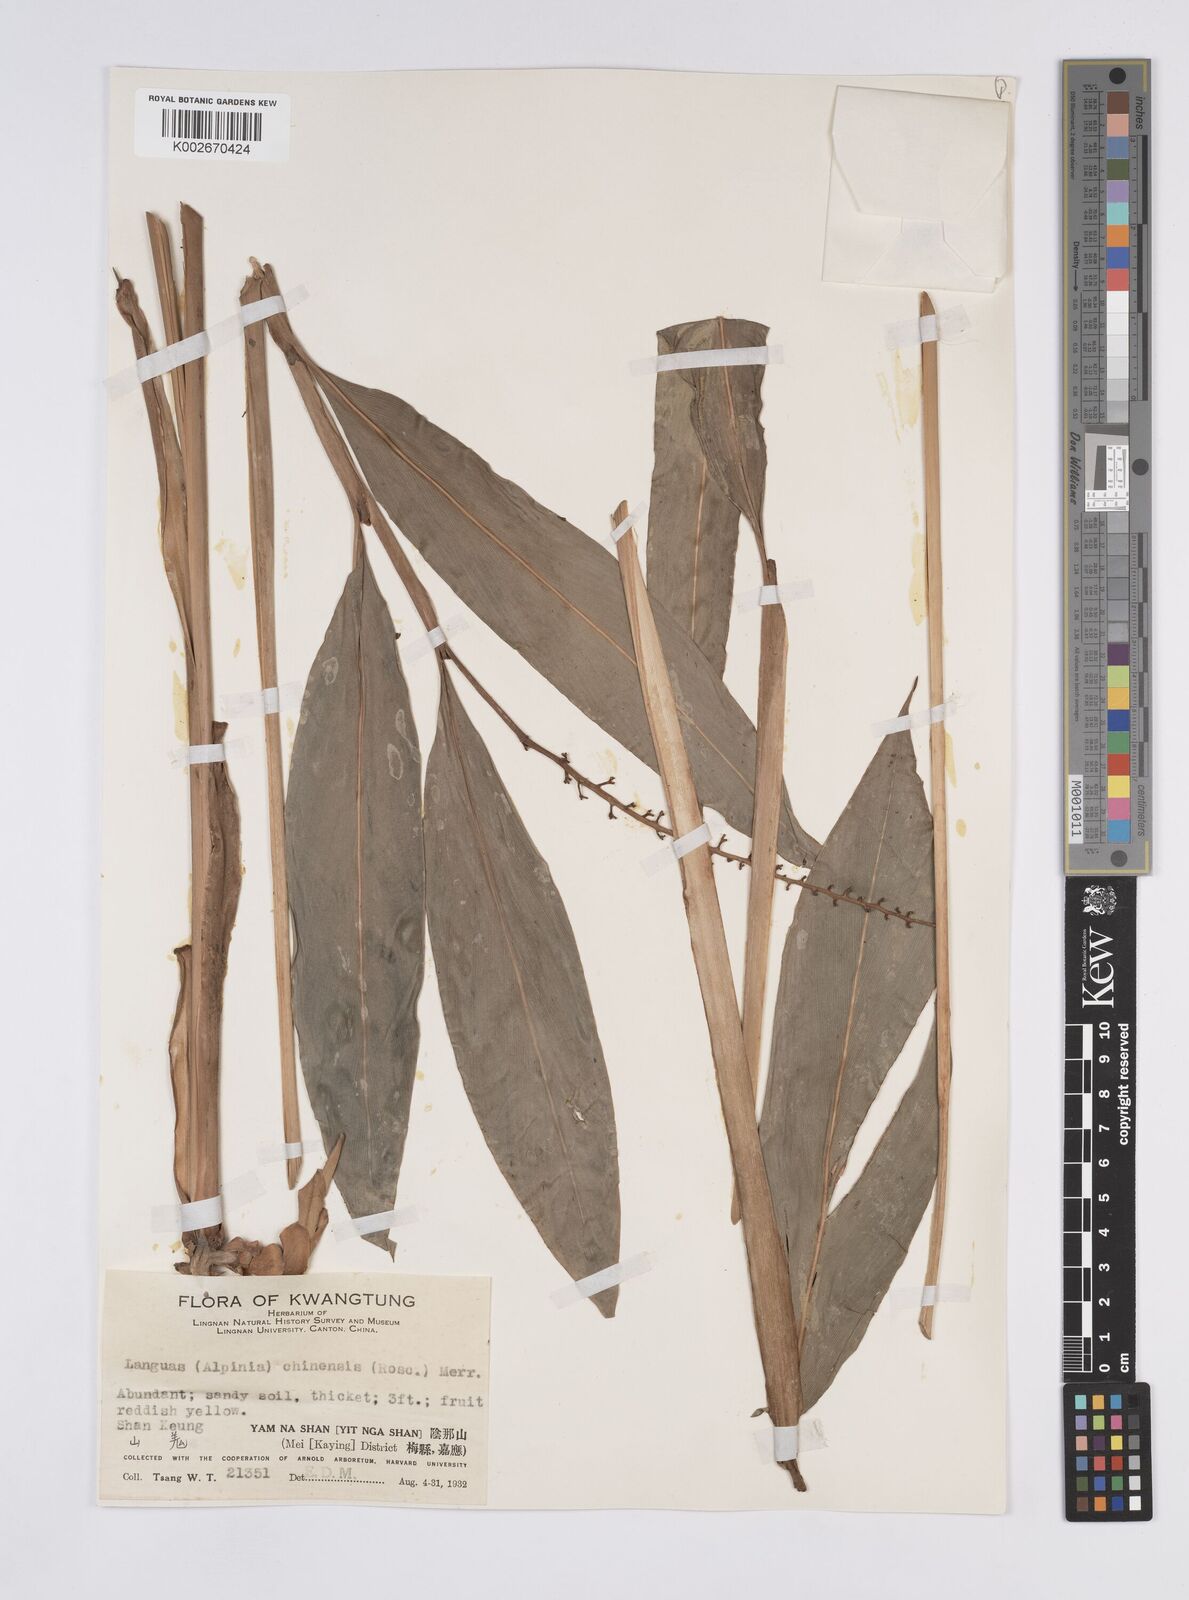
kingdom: Plantae
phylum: Tracheophyta
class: Liliopsida
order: Zingiberales
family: Zingiberaceae
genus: Alpinia
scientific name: Alpinia chinensis
